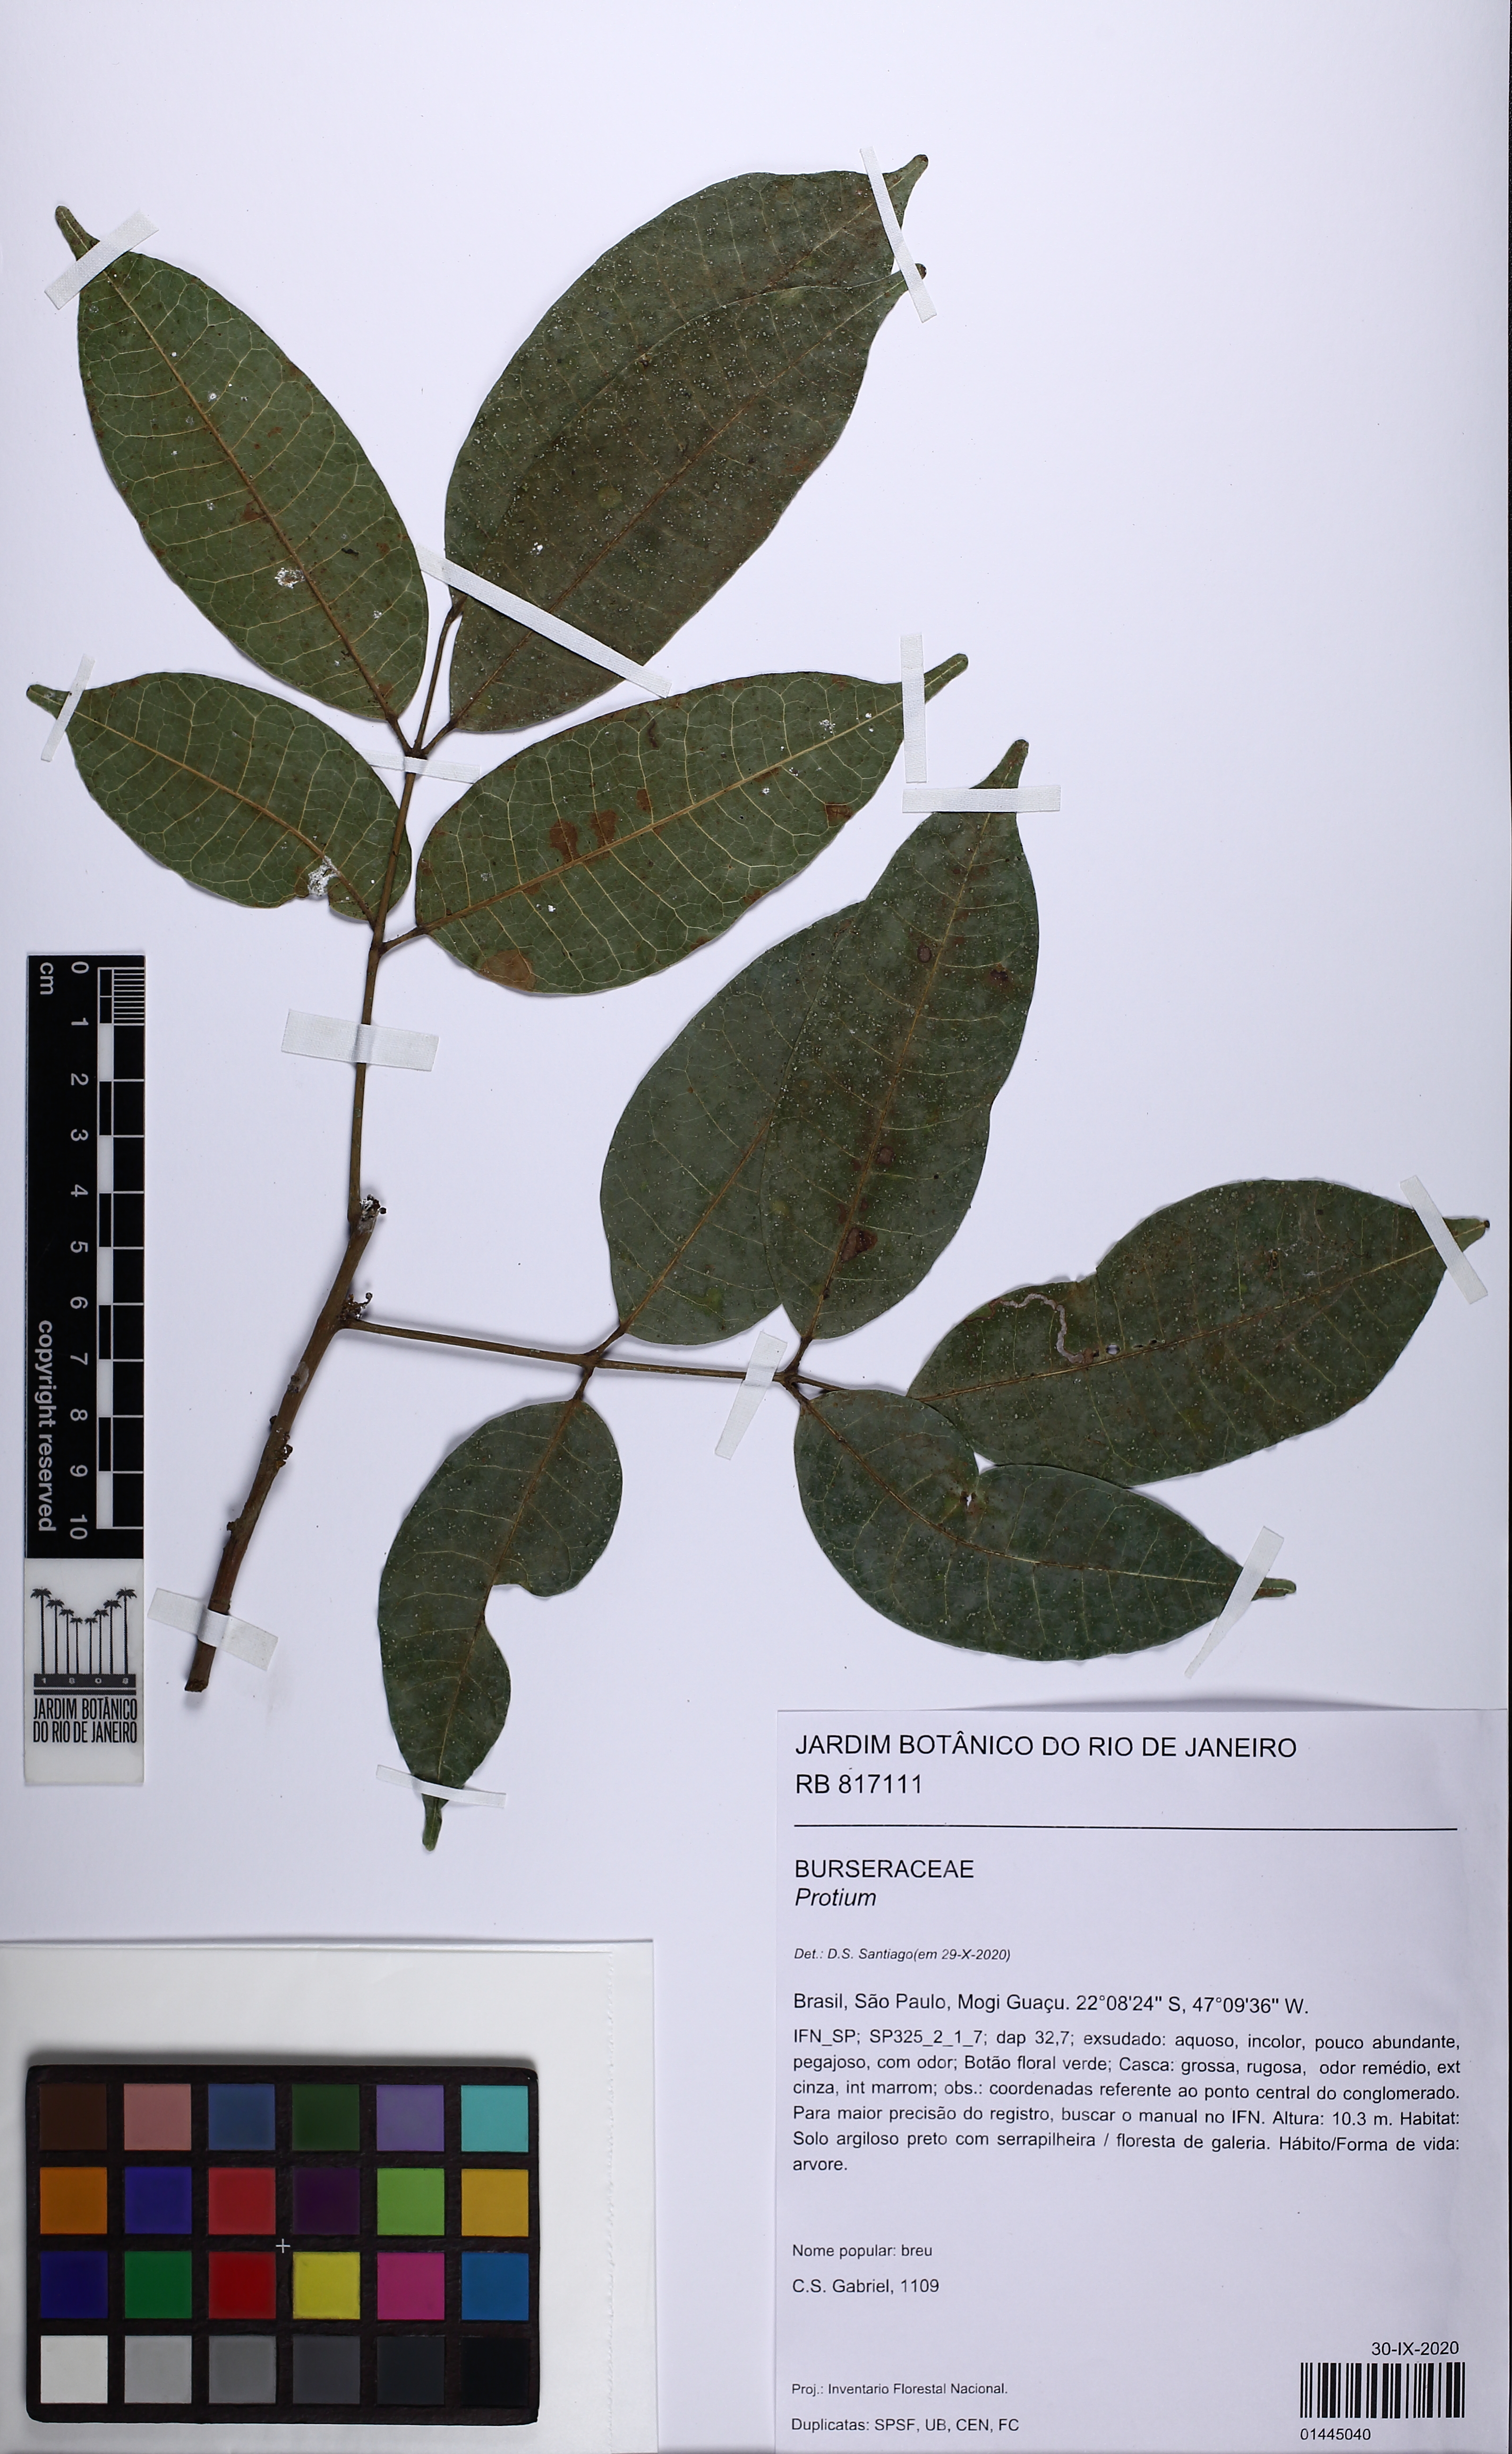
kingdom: Plantae
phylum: Tracheophyta
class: Magnoliopsida
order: Sapindales
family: Burseraceae
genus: Protium
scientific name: Protium spruceanum
